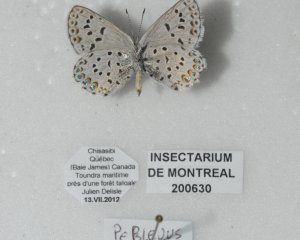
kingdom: Animalia
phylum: Arthropoda
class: Insecta
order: Lepidoptera
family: Lycaenidae
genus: Lycaeides
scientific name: Lycaeides idas
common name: Northern Blue
